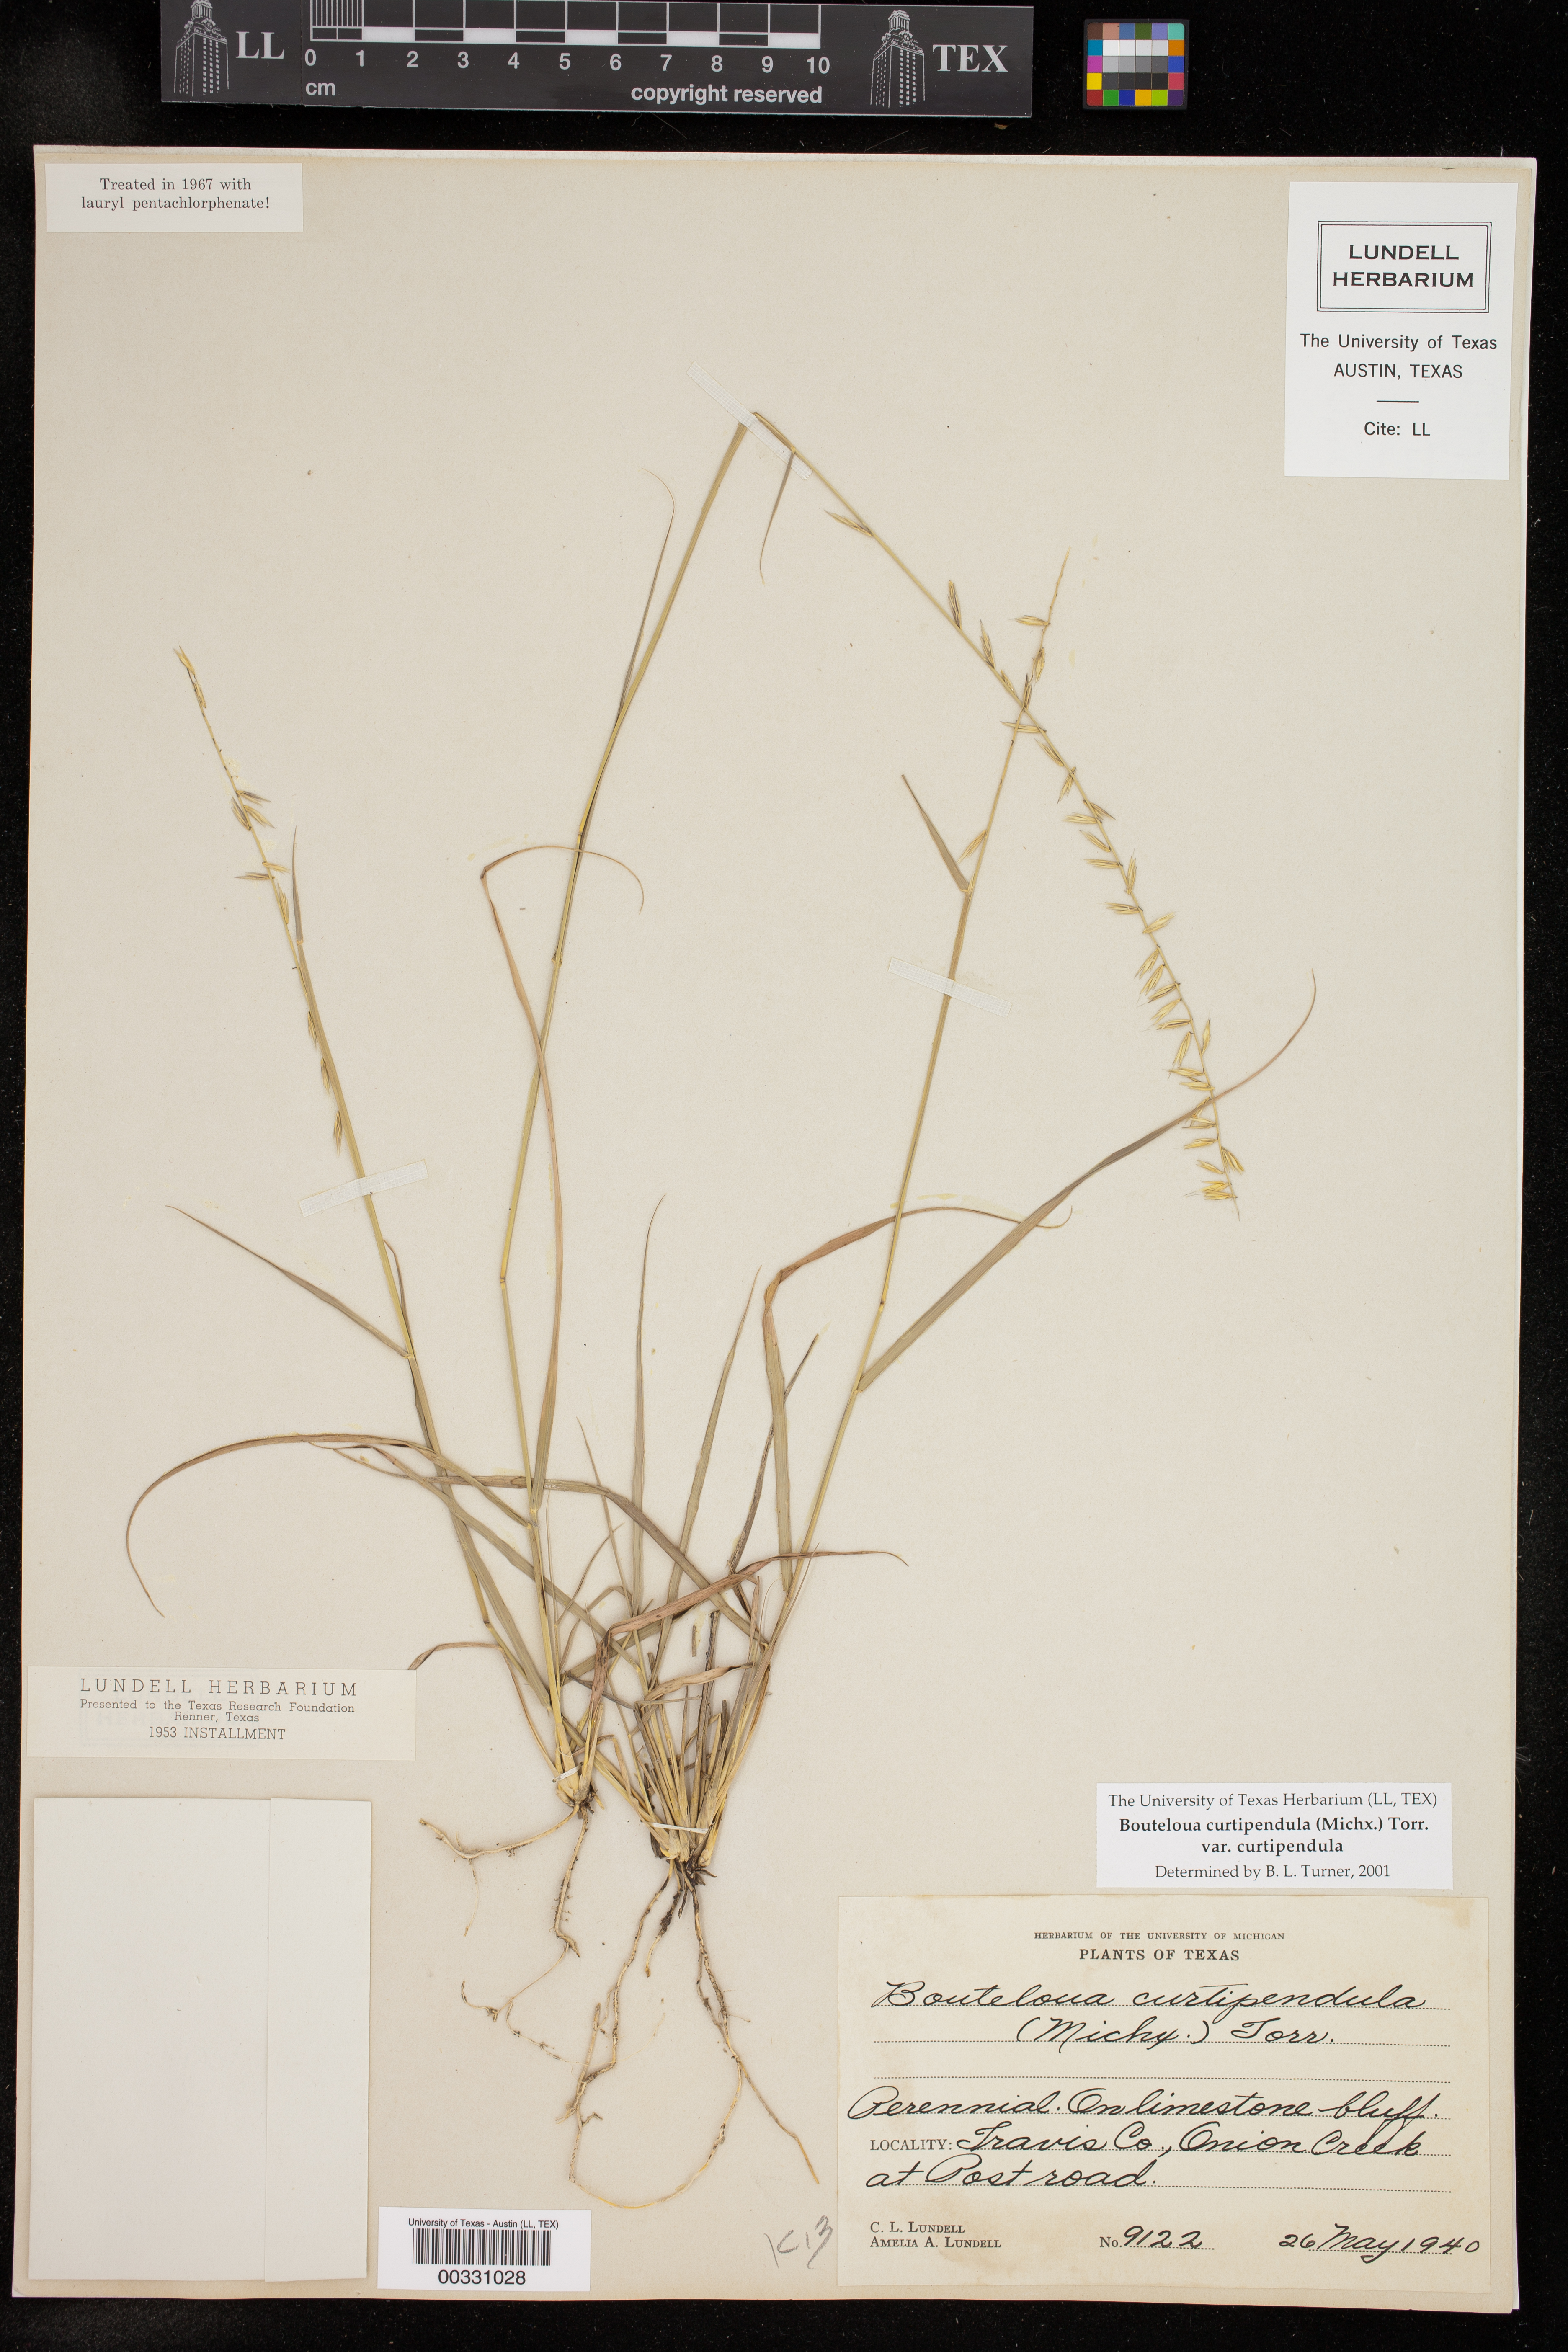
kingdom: Plantae
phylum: Tracheophyta
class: Liliopsida
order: Poales
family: Poaceae
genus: Bouteloua
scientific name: Bouteloua curtipendula
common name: Side-oats grama
